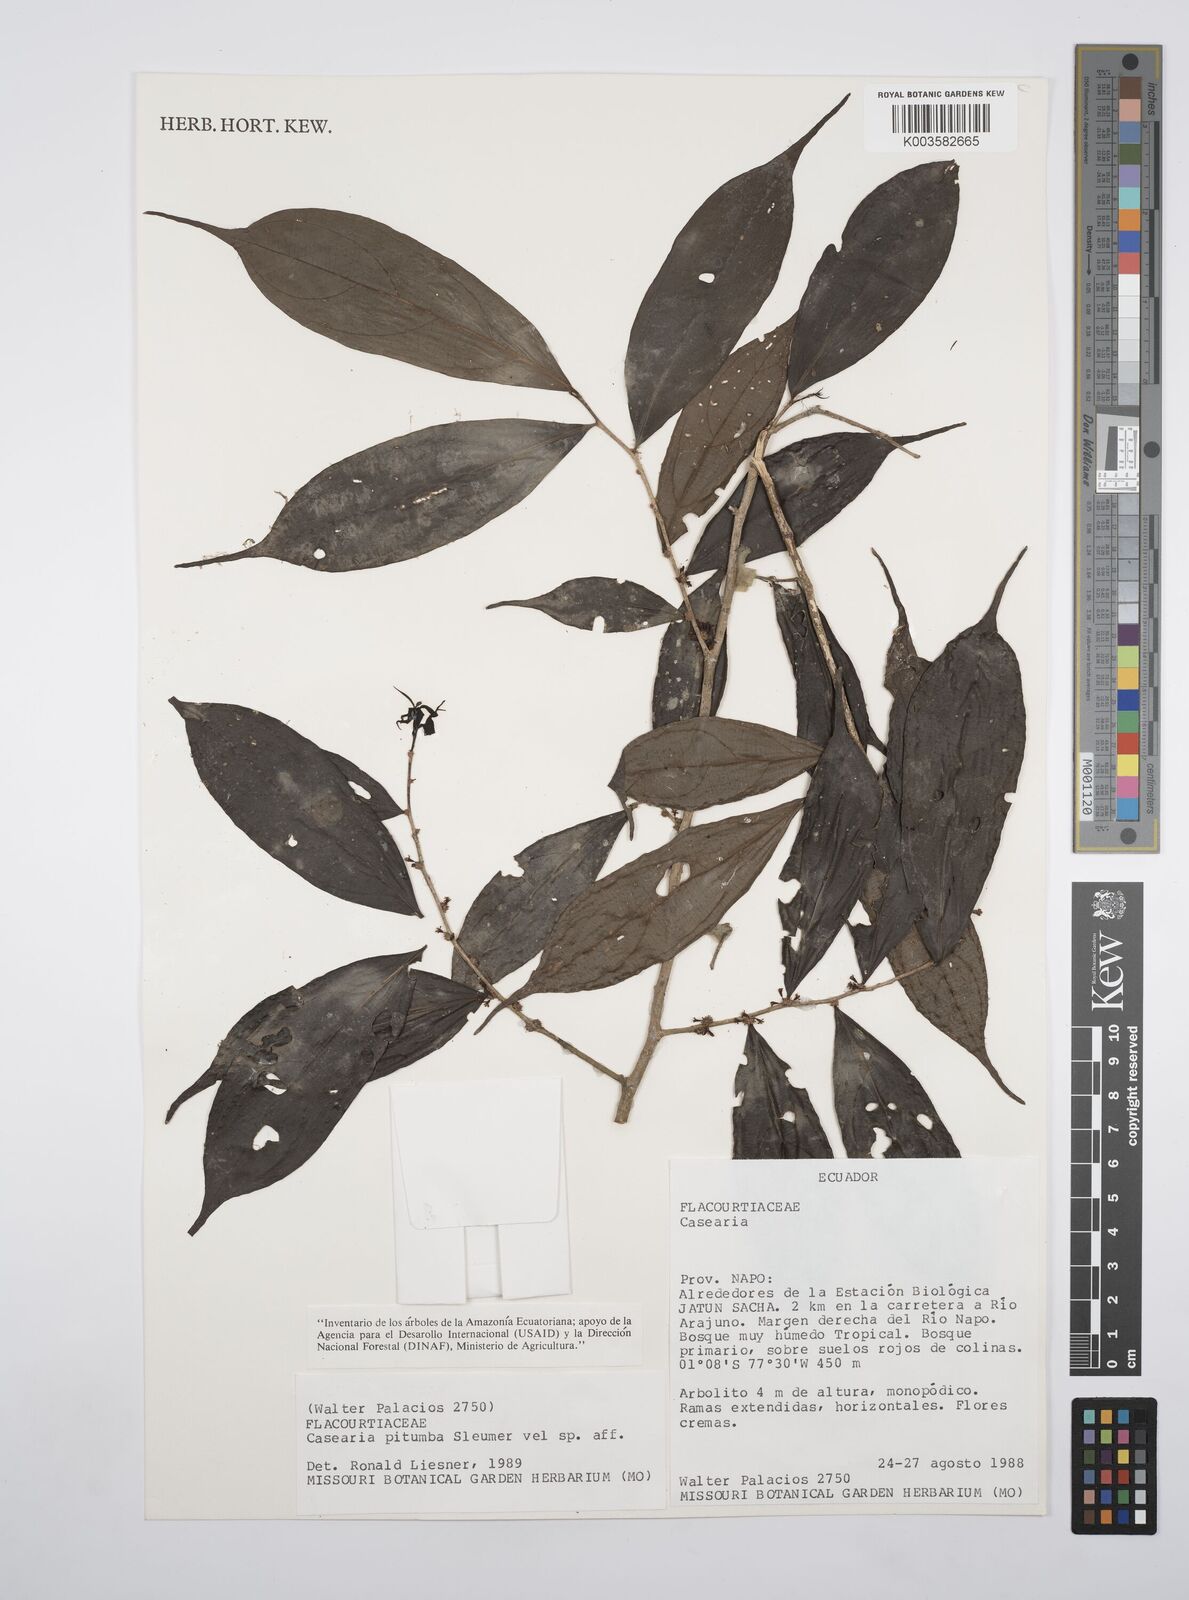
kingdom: Plantae
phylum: Tracheophyta
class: Magnoliopsida
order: Malpighiales
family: Salicaceae
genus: Casearia
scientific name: Casearia pitumba
